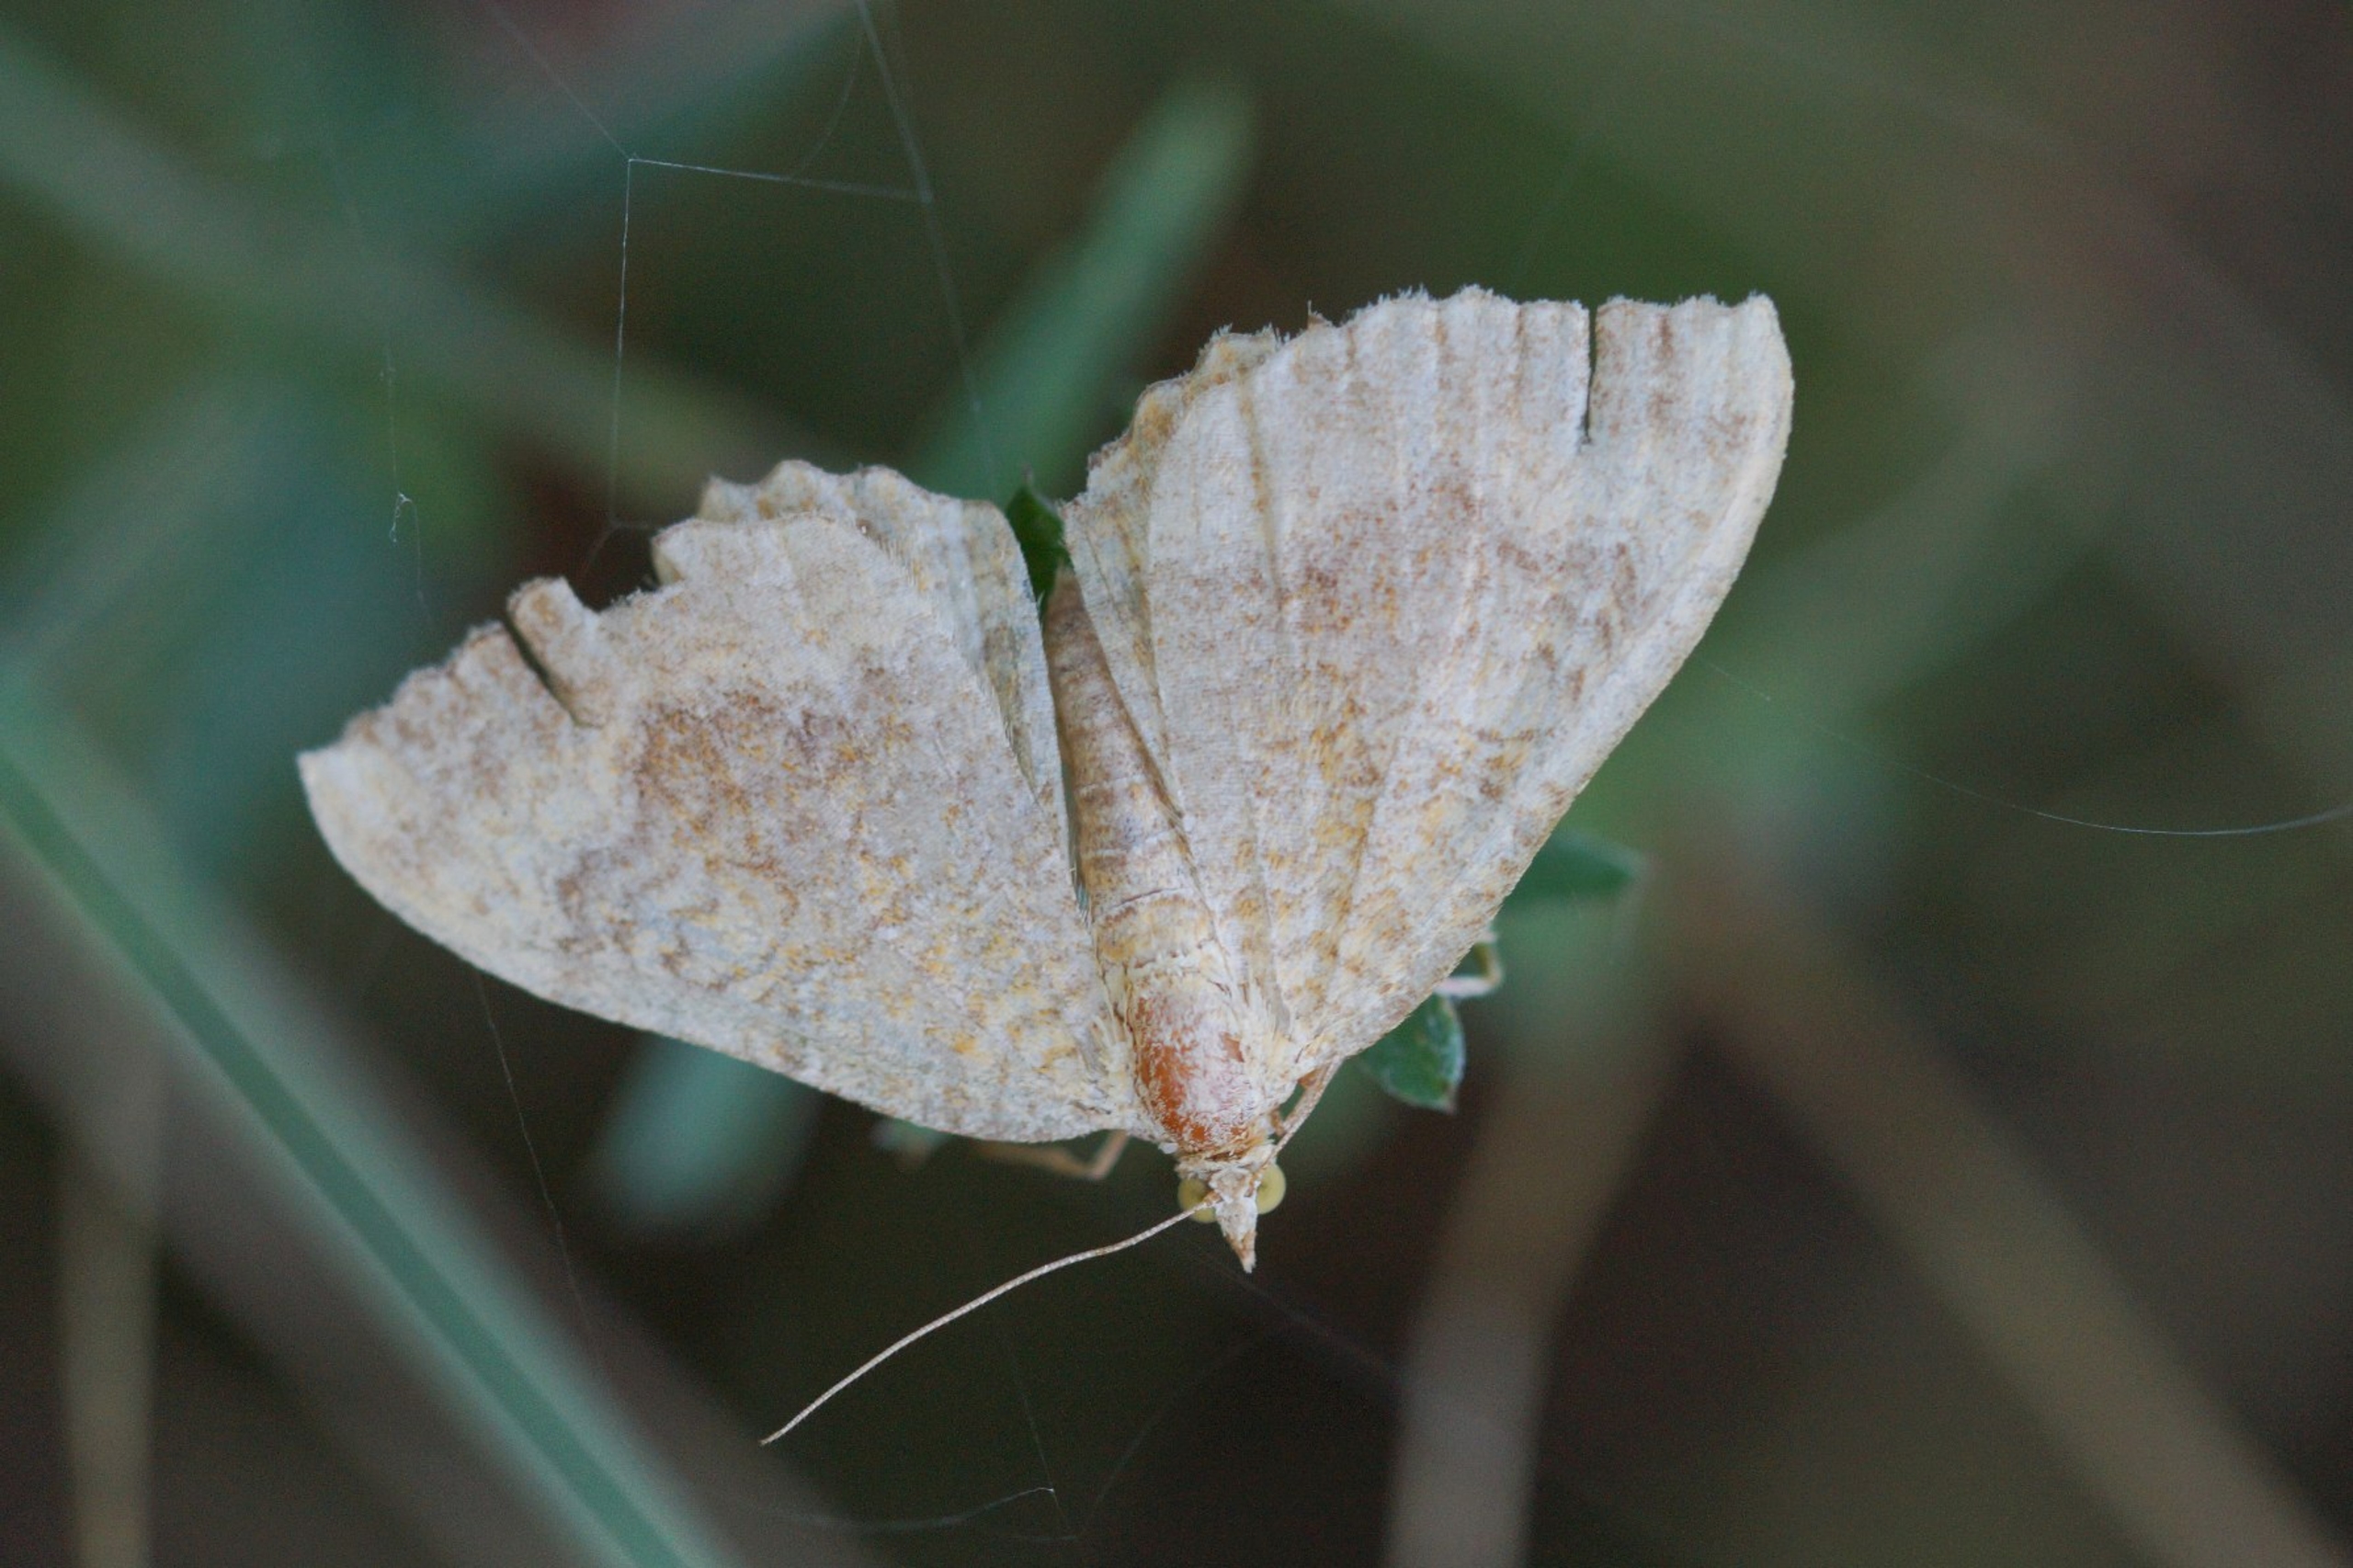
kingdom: Animalia
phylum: Arthropoda
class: Insecta
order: Lepidoptera
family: Geometridae
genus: Camptogramma
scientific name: Camptogramma bilineata
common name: Okkergul bladmåler
